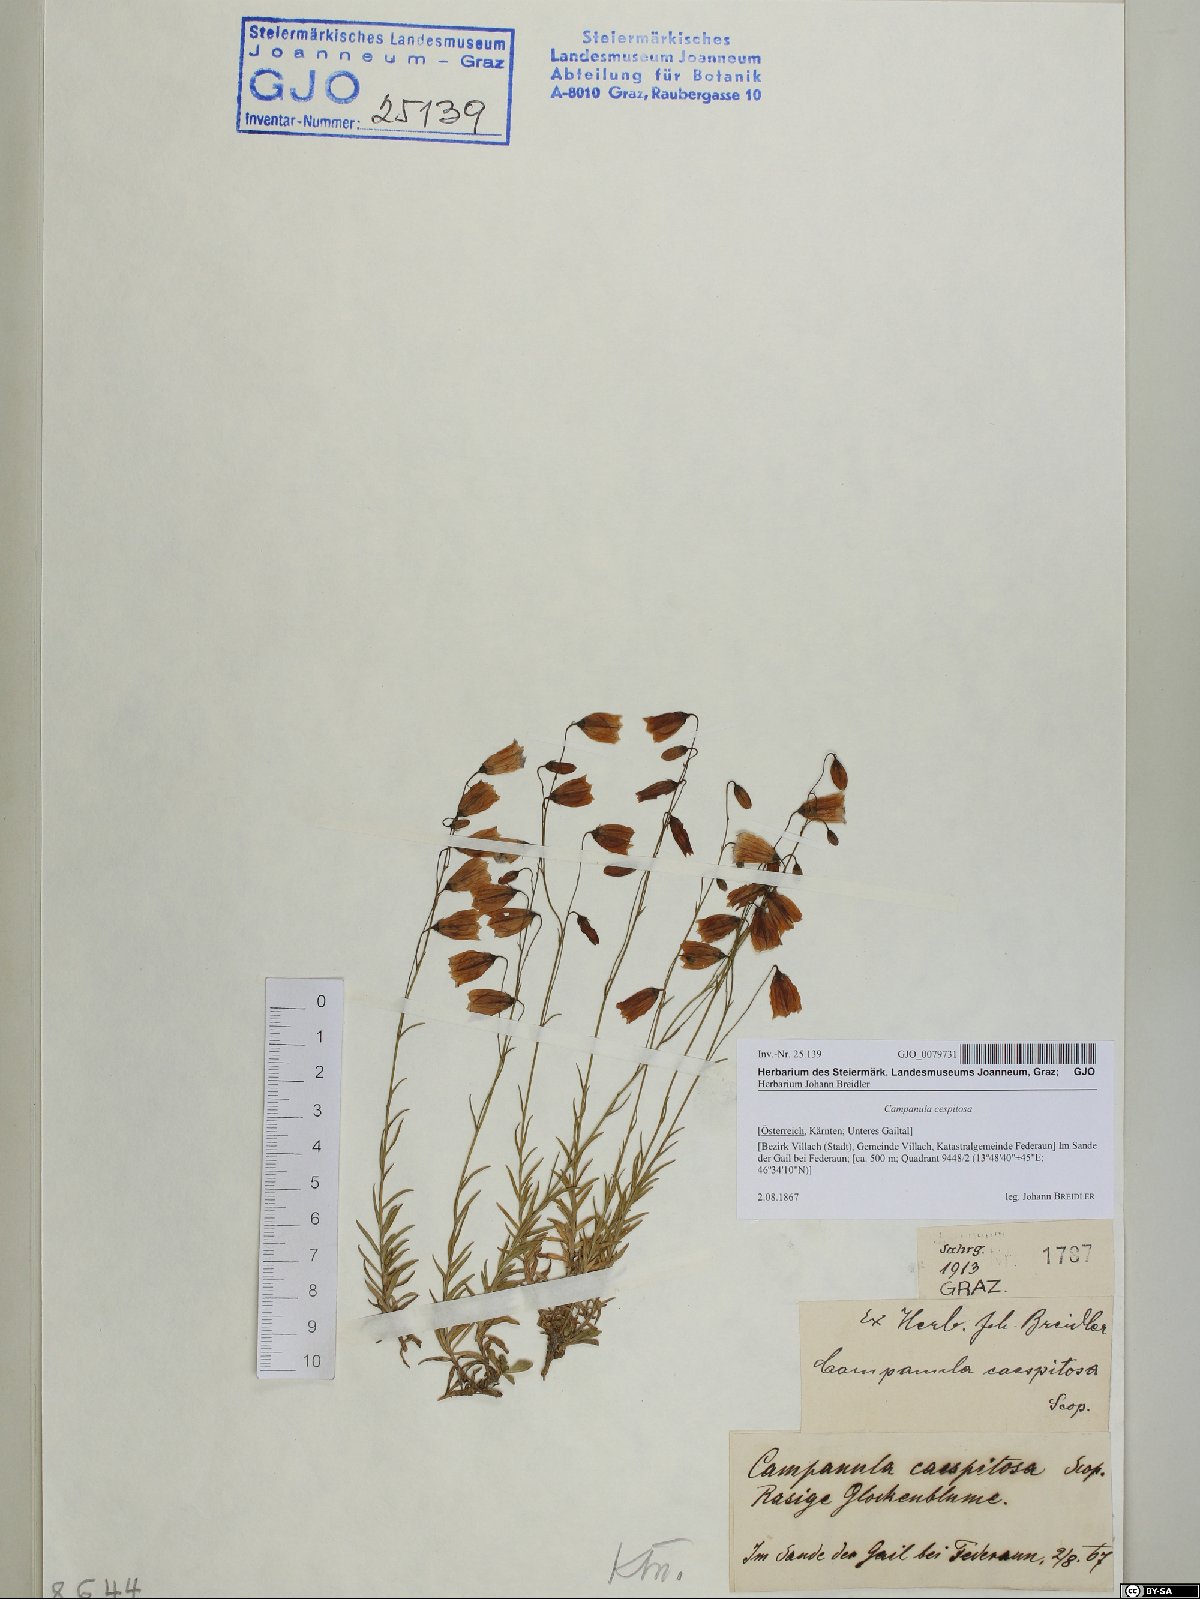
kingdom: Plantae
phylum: Tracheophyta
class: Magnoliopsida
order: Asterales
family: Campanulaceae
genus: Campanula
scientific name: Campanula cespitosa
